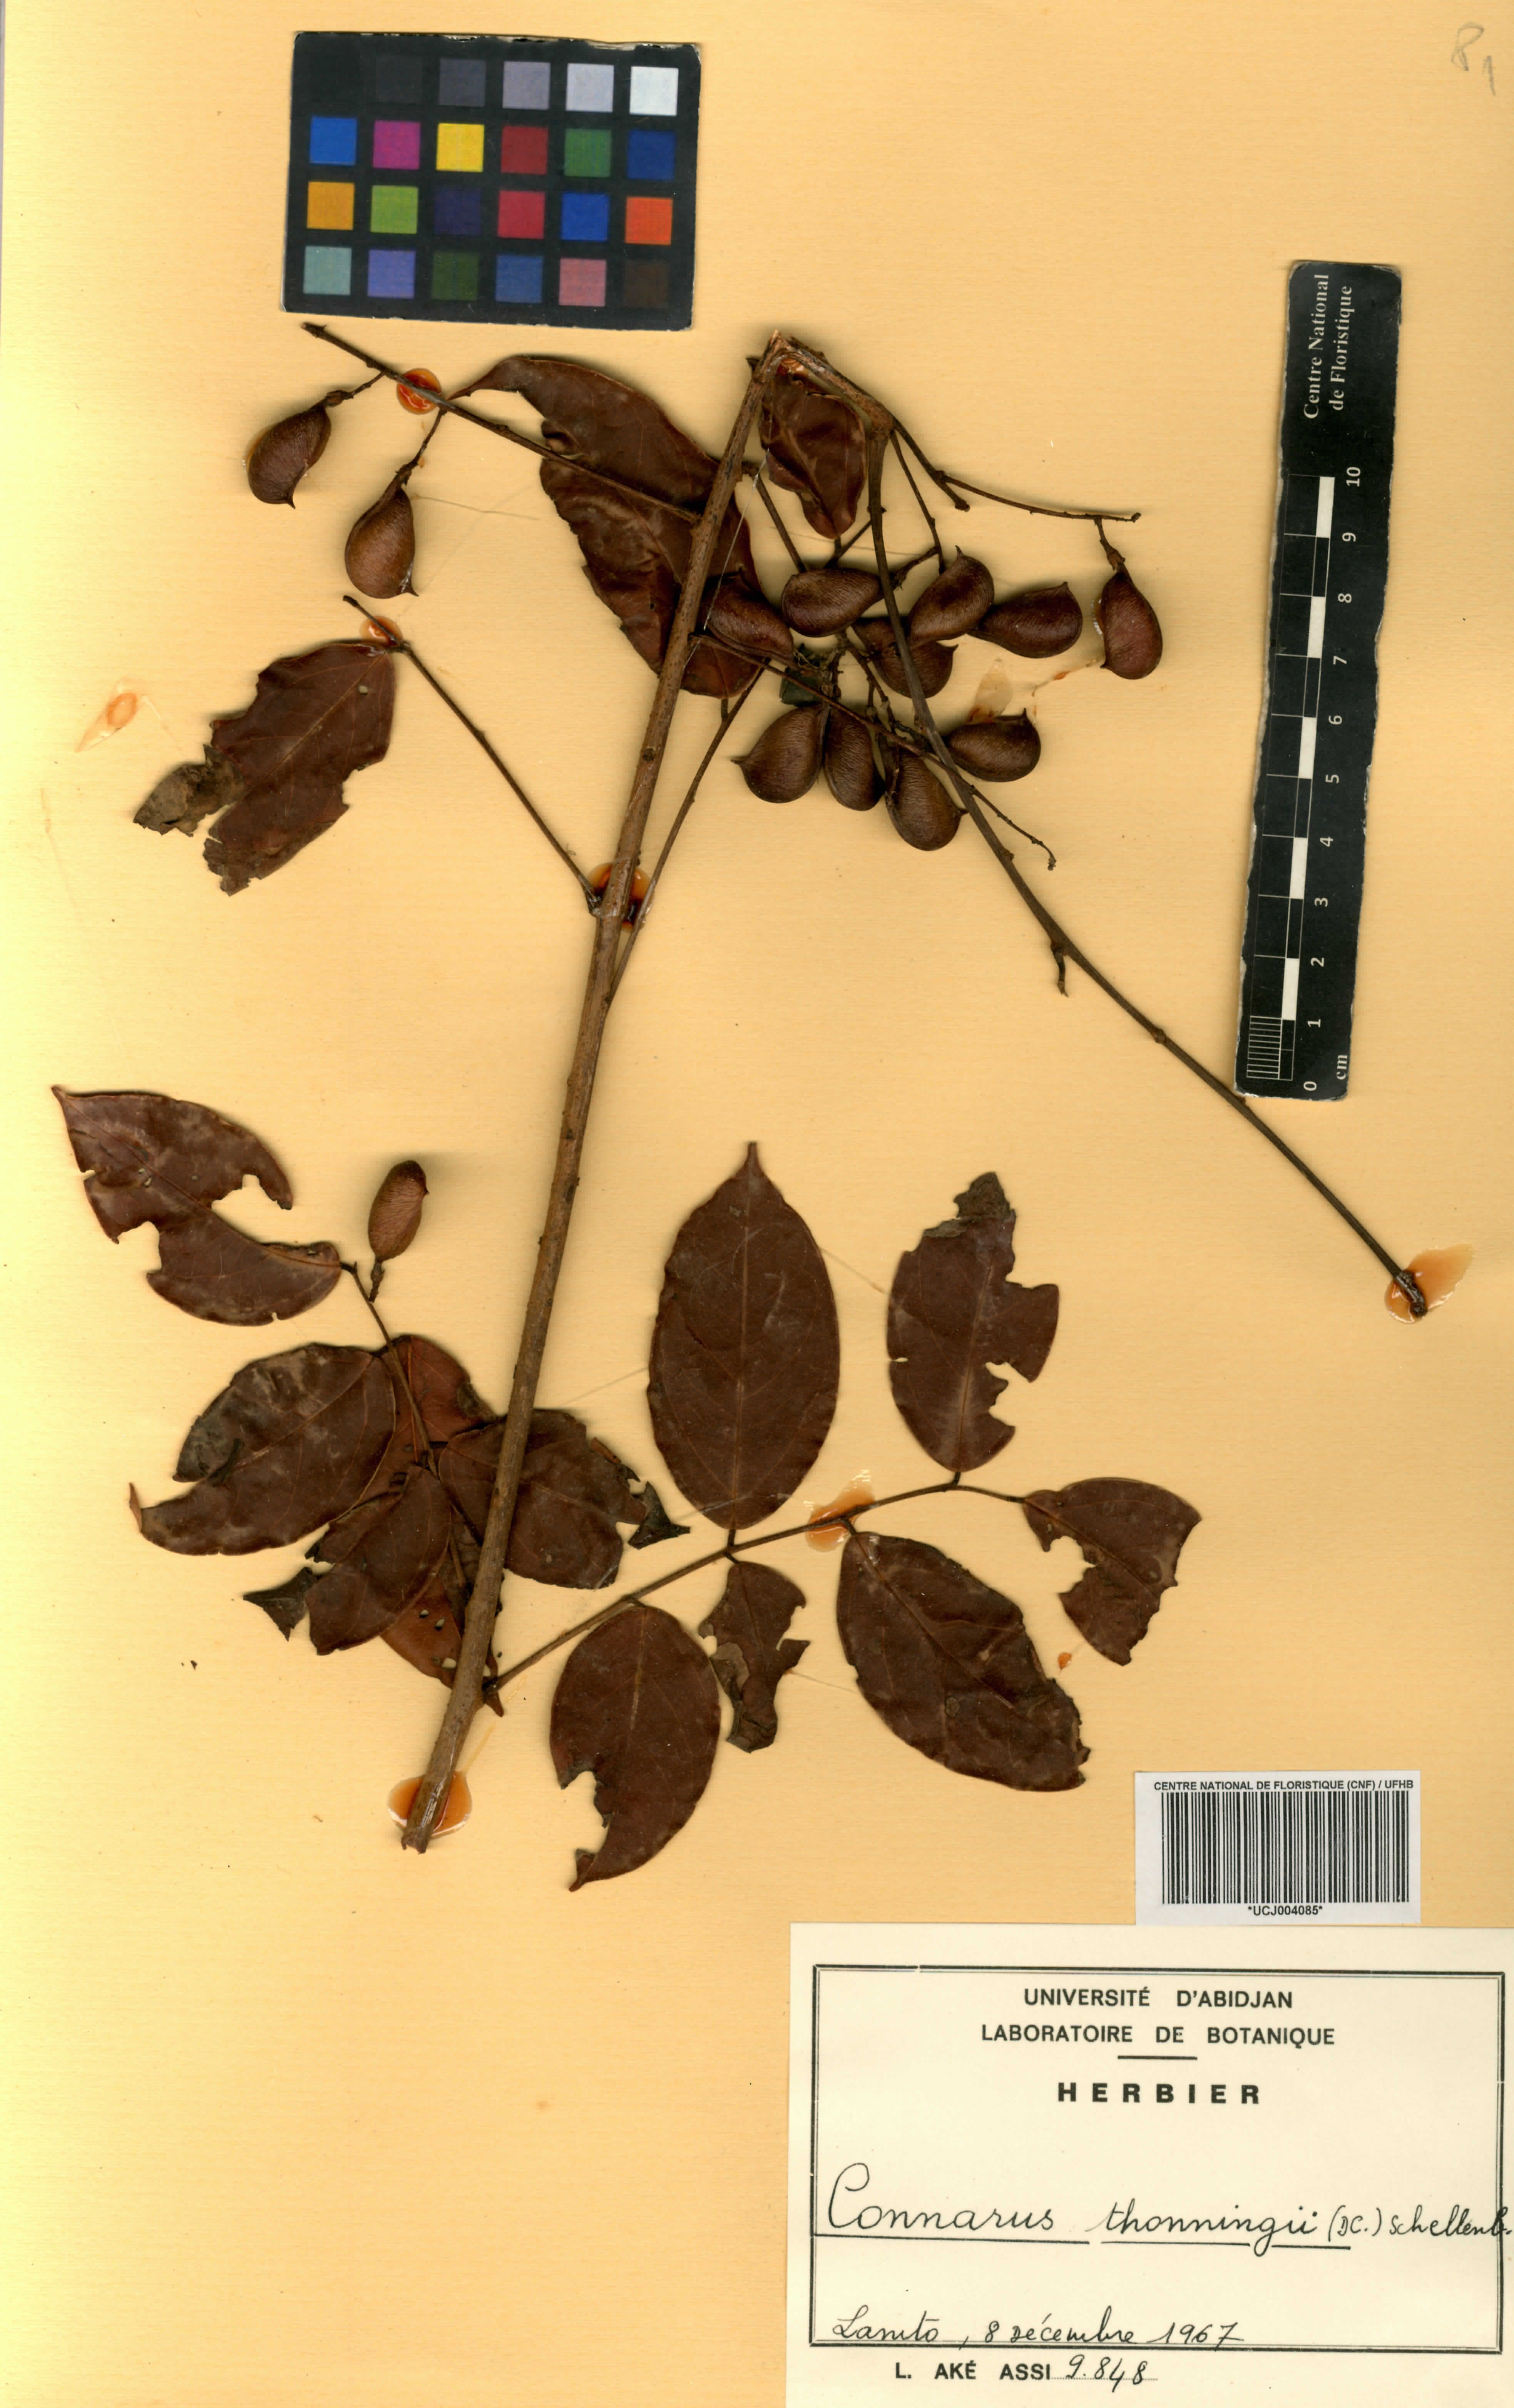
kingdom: Plantae
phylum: Tracheophyta
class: Magnoliopsida
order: Oxalidales
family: Connaraceae
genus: Connarus
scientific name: Connarus thonningii
